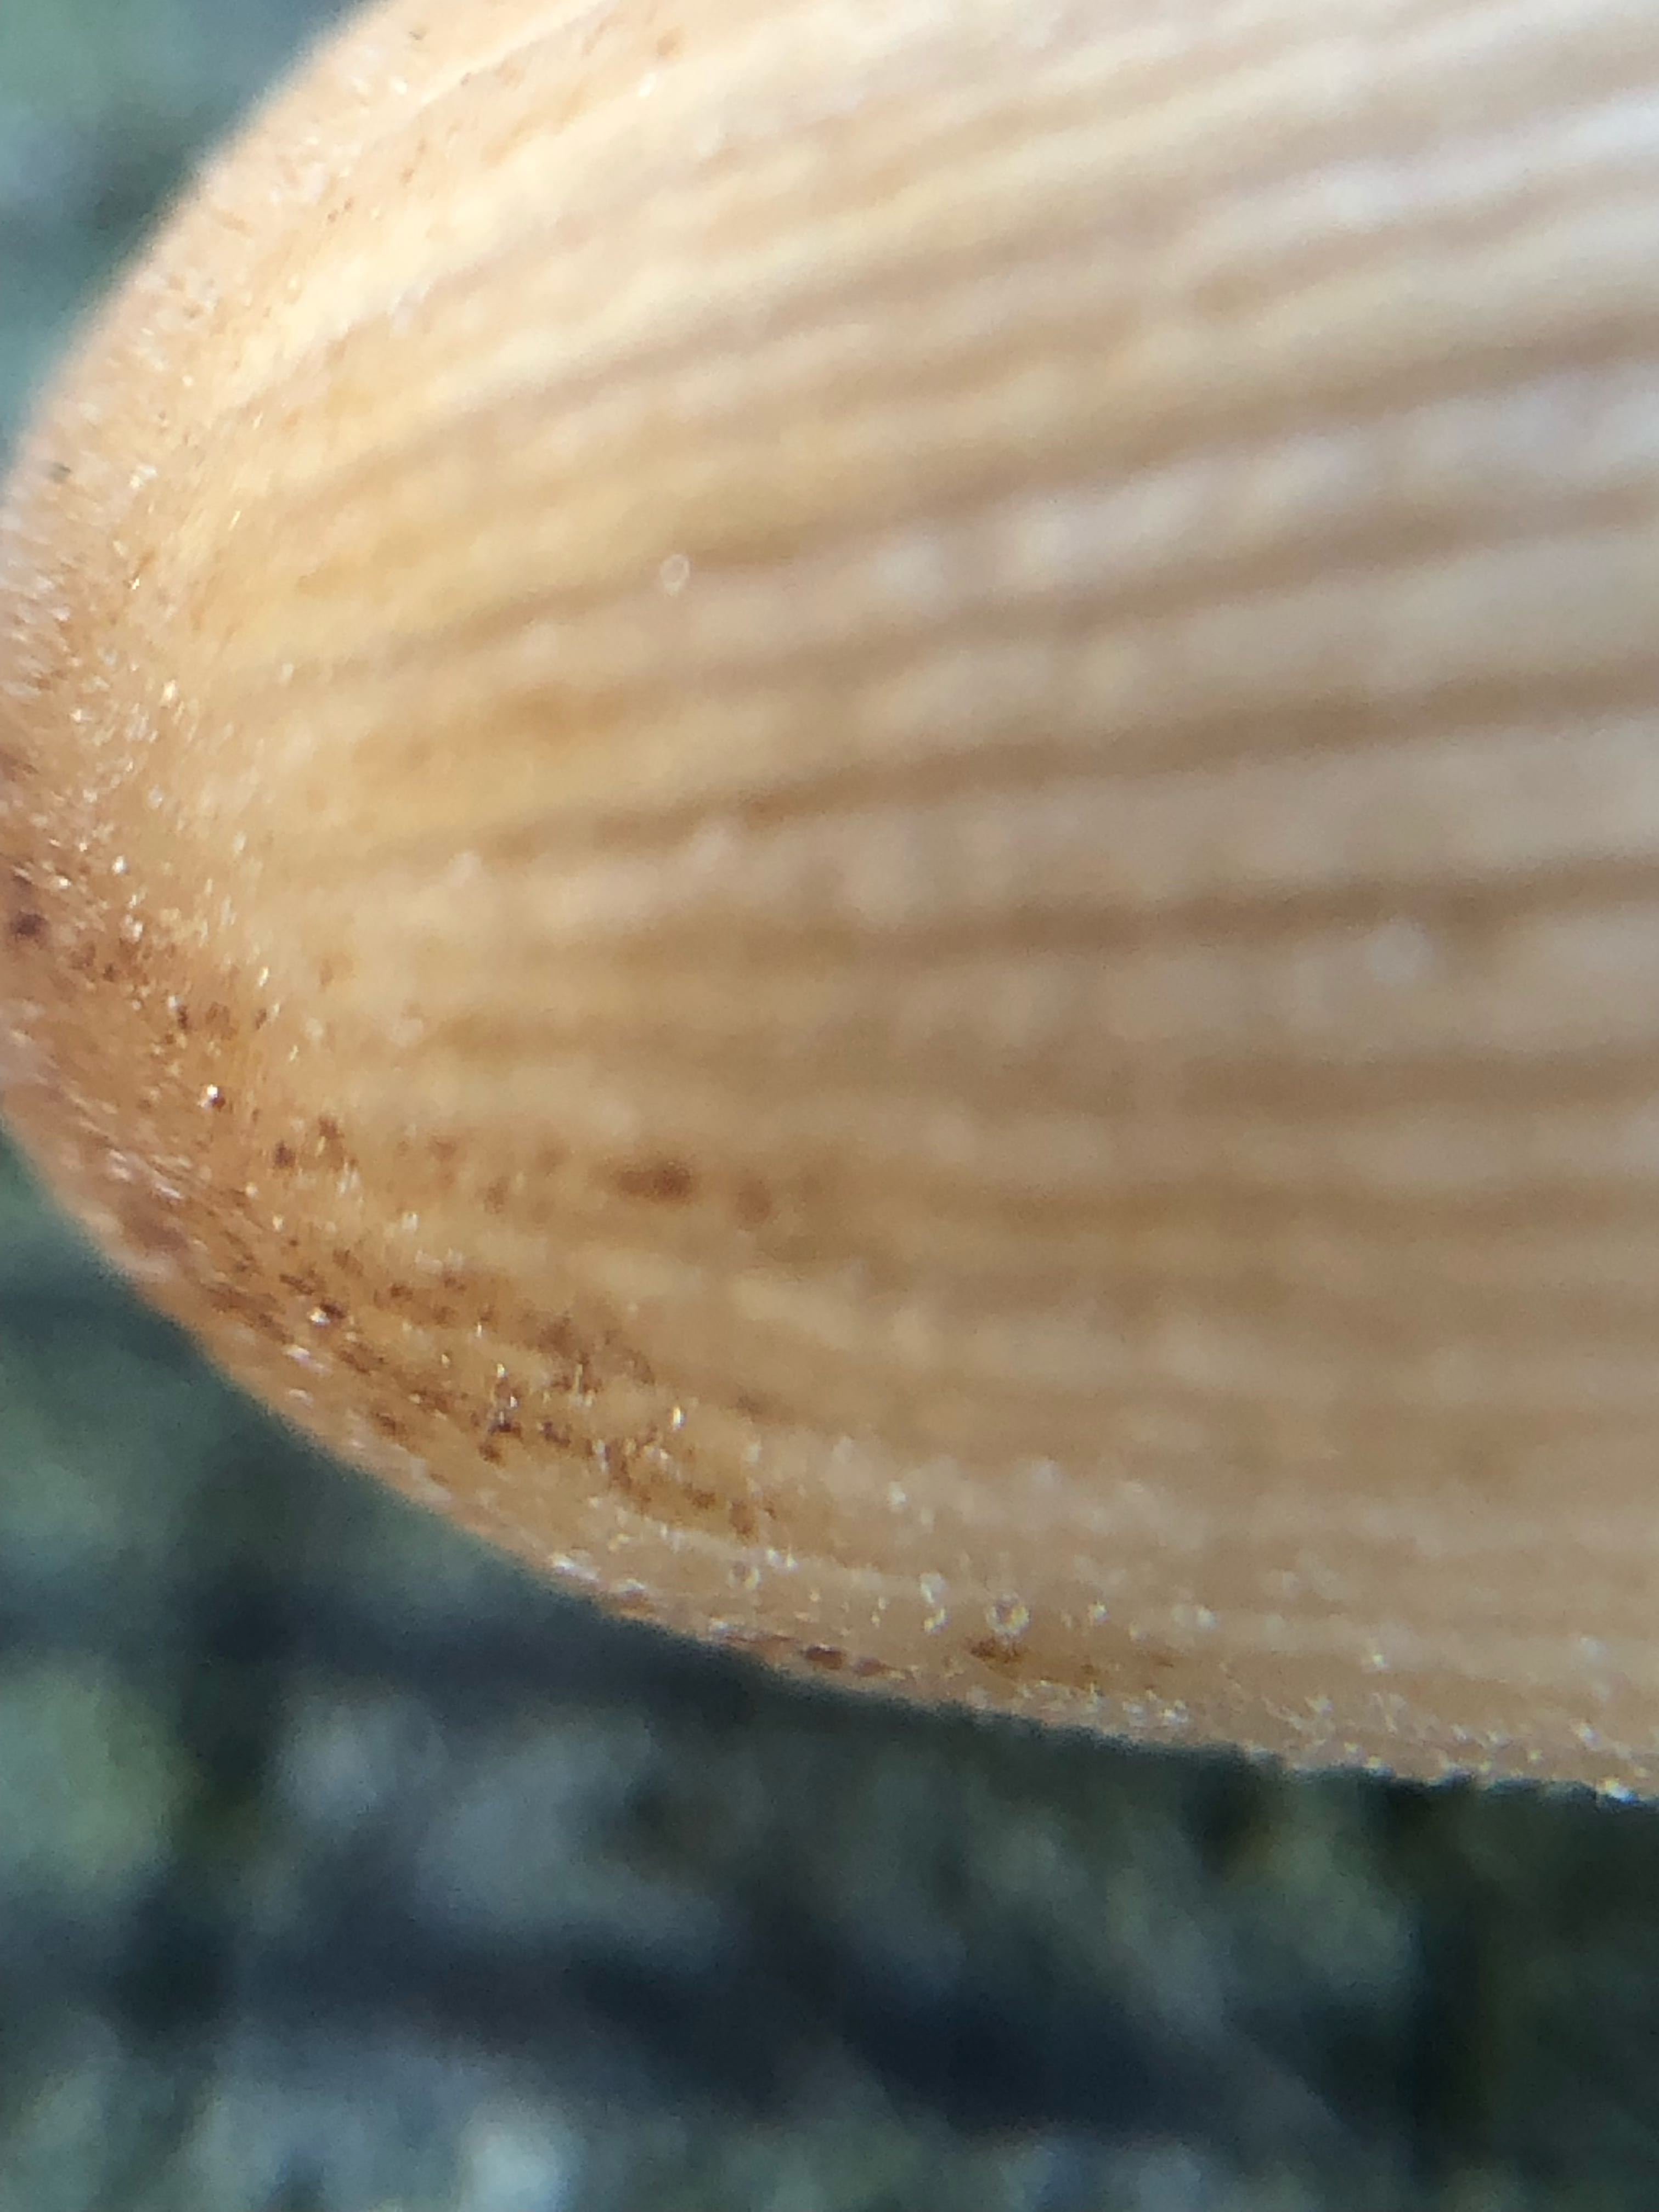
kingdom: Fungi
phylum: Basidiomycota
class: Agaricomycetes
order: Agaricales
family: Psathyrellaceae
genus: Coprinellus
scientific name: Coprinellus disseminatus
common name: bredsået blækhat
